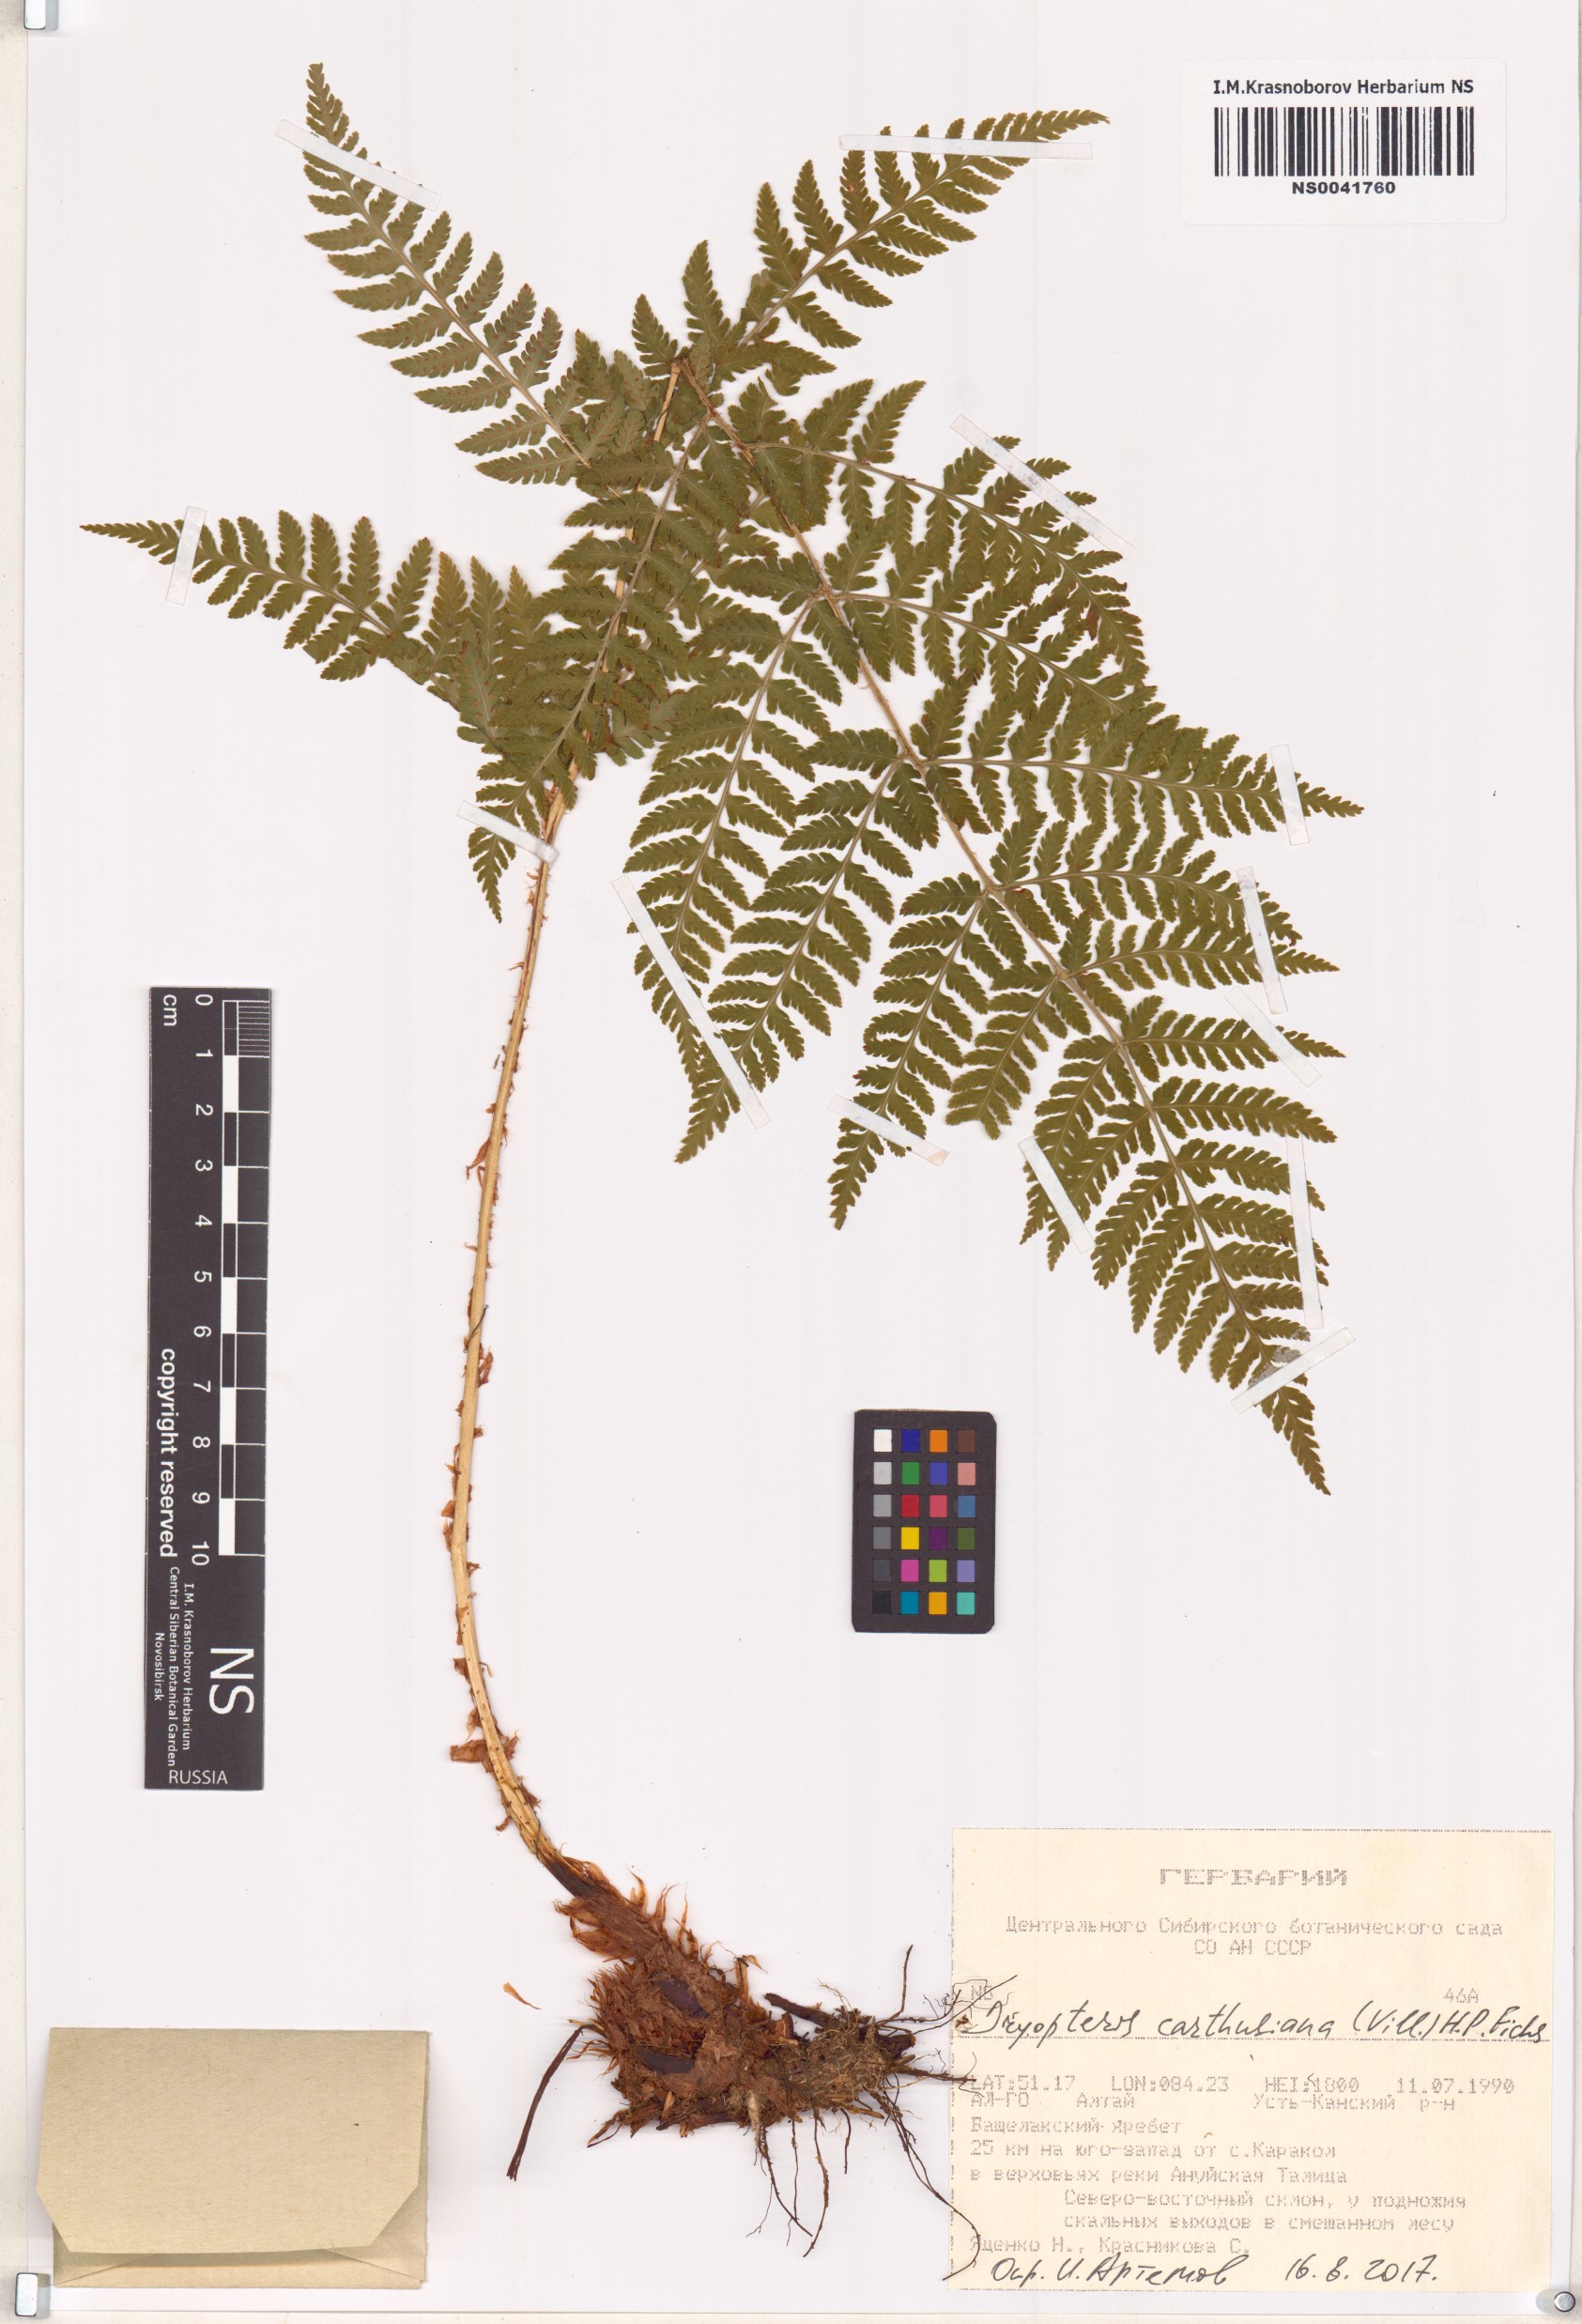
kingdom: Plantae
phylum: Tracheophyta
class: Polypodiopsida
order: Polypodiales
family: Dryopteridaceae
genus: Dryopteris
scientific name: Dryopteris carthusiana
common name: Narrow buckler-fern
